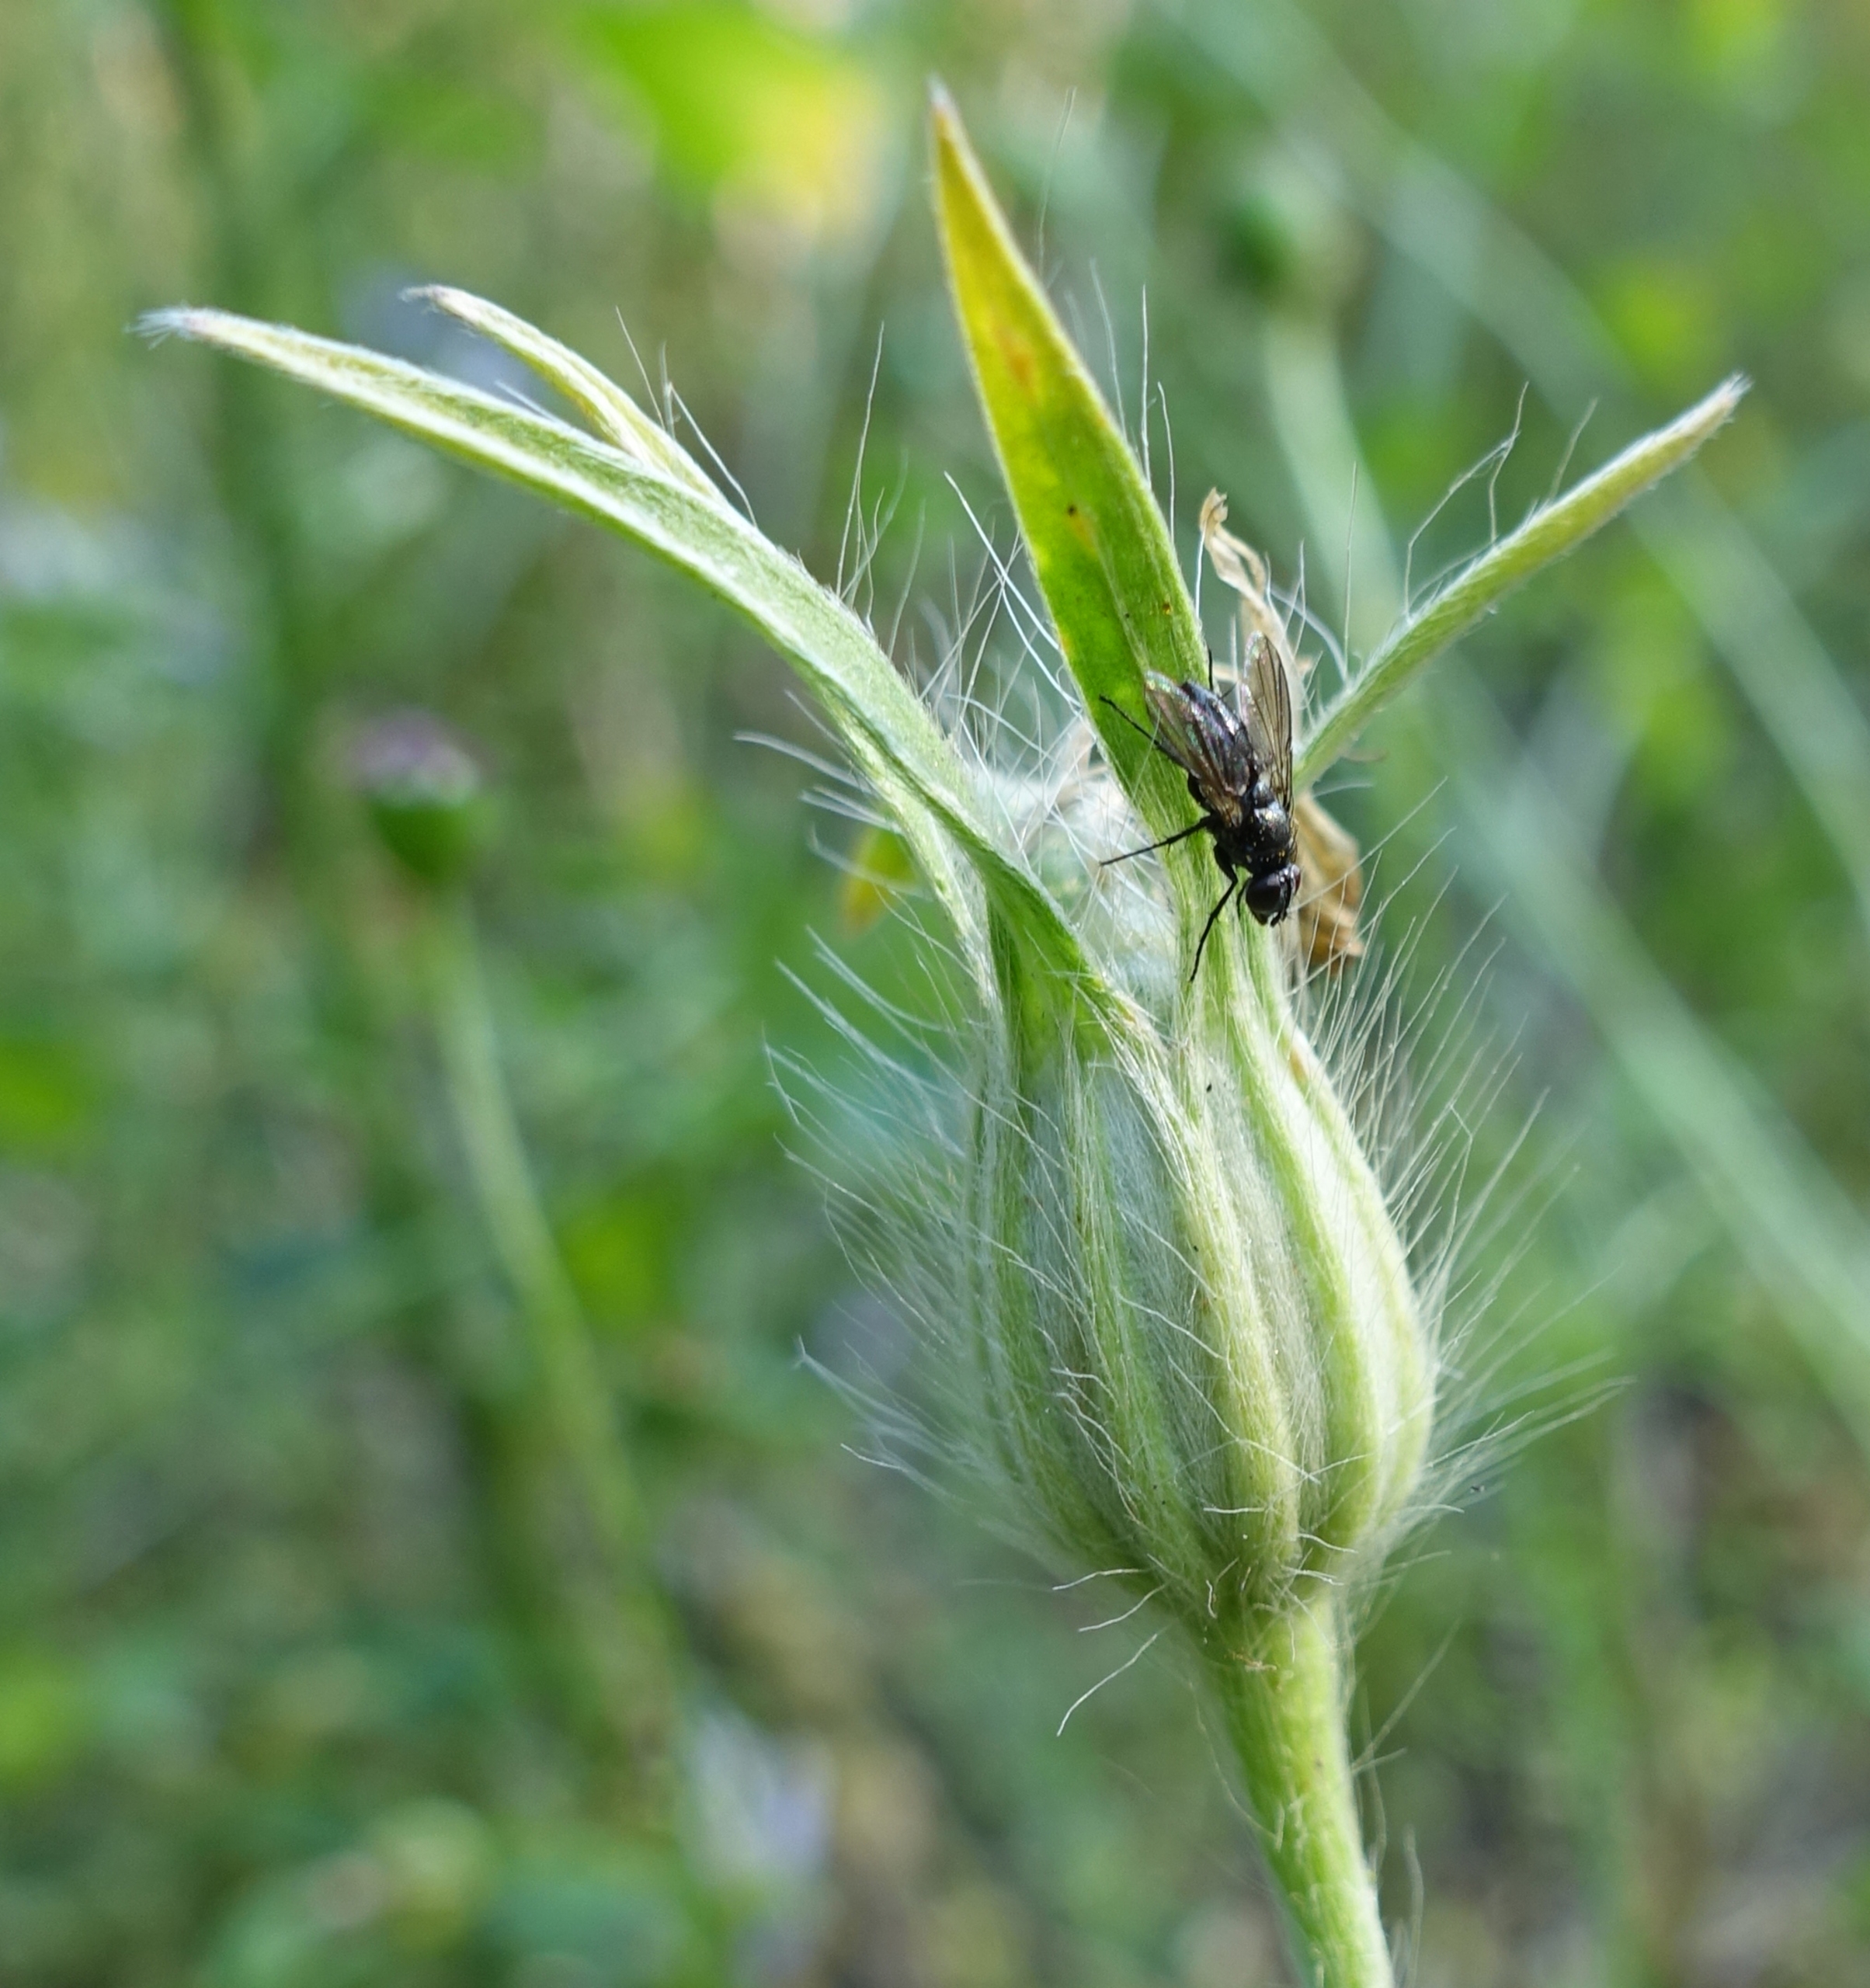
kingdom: Animalia
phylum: Arthropoda
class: Insecta
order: Diptera
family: Calliphoridae
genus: Rhinophora
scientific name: Rhinophora lepida
